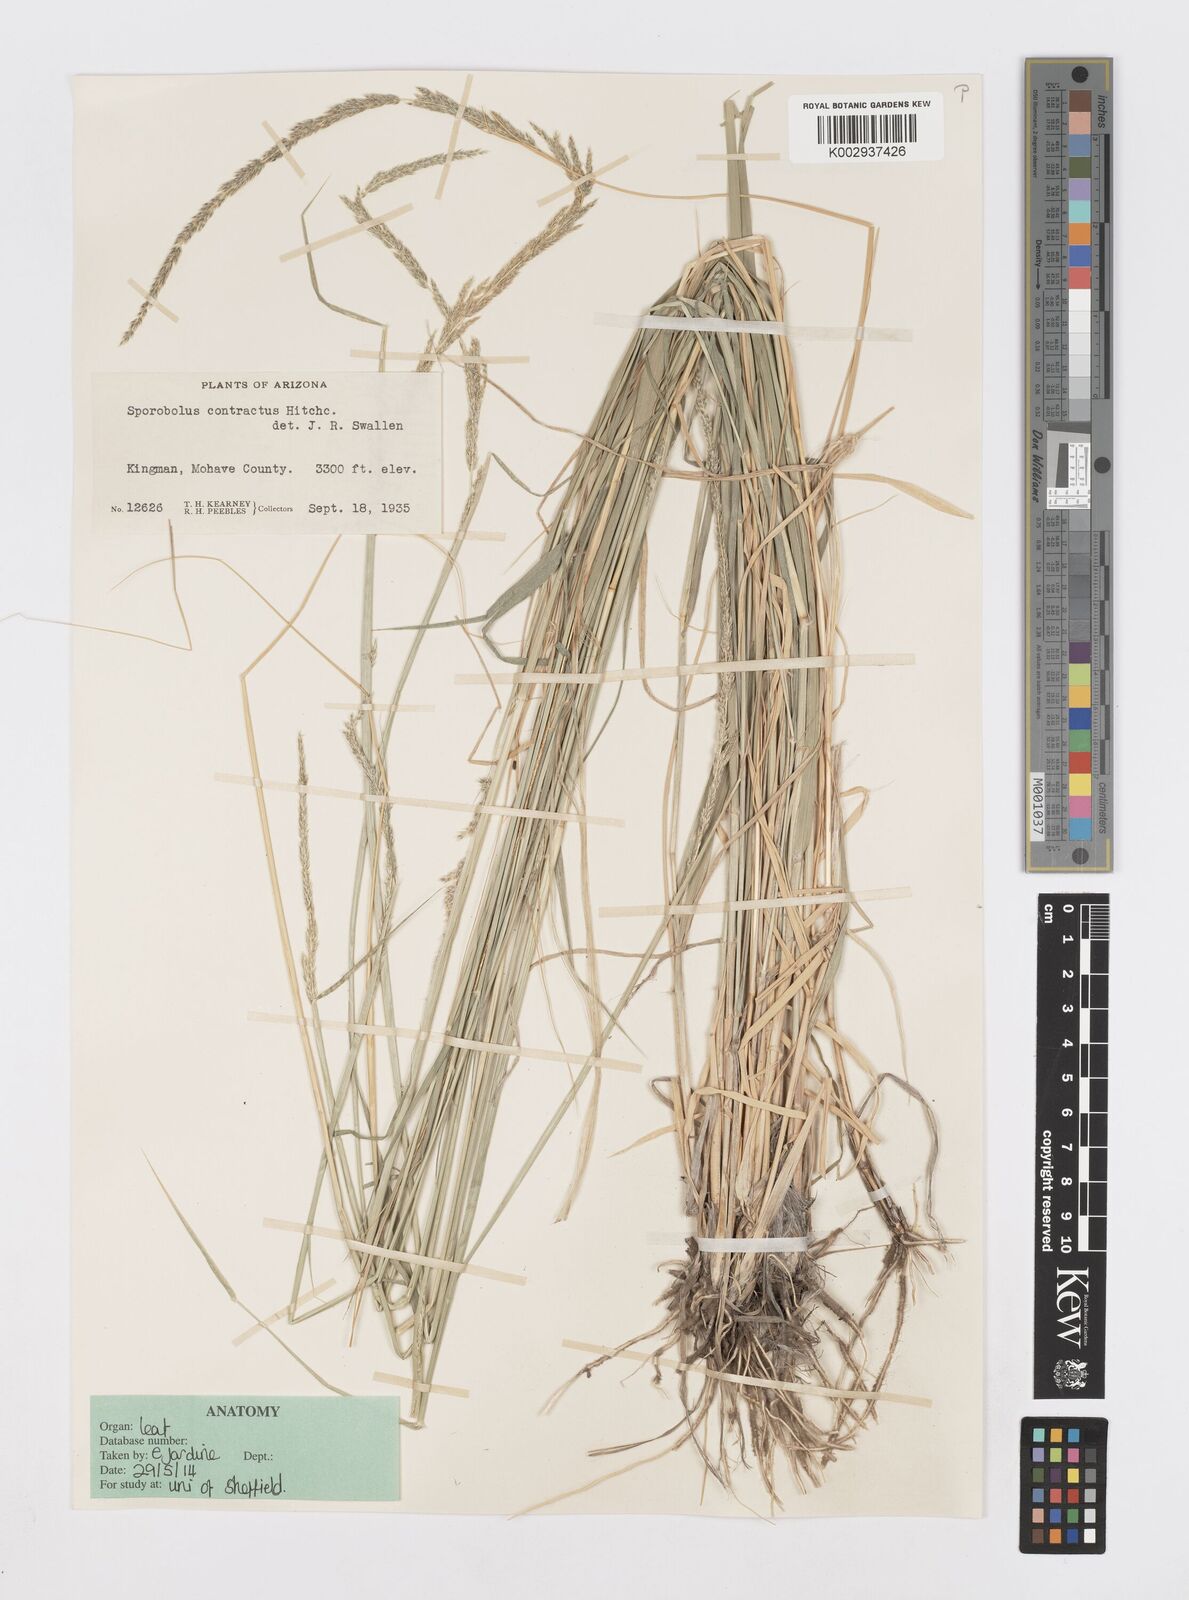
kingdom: Plantae
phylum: Tracheophyta
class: Liliopsida
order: Poales
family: Poaceae
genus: Sporobolus
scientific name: Sporobolus contractus
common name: Spike dropseed
